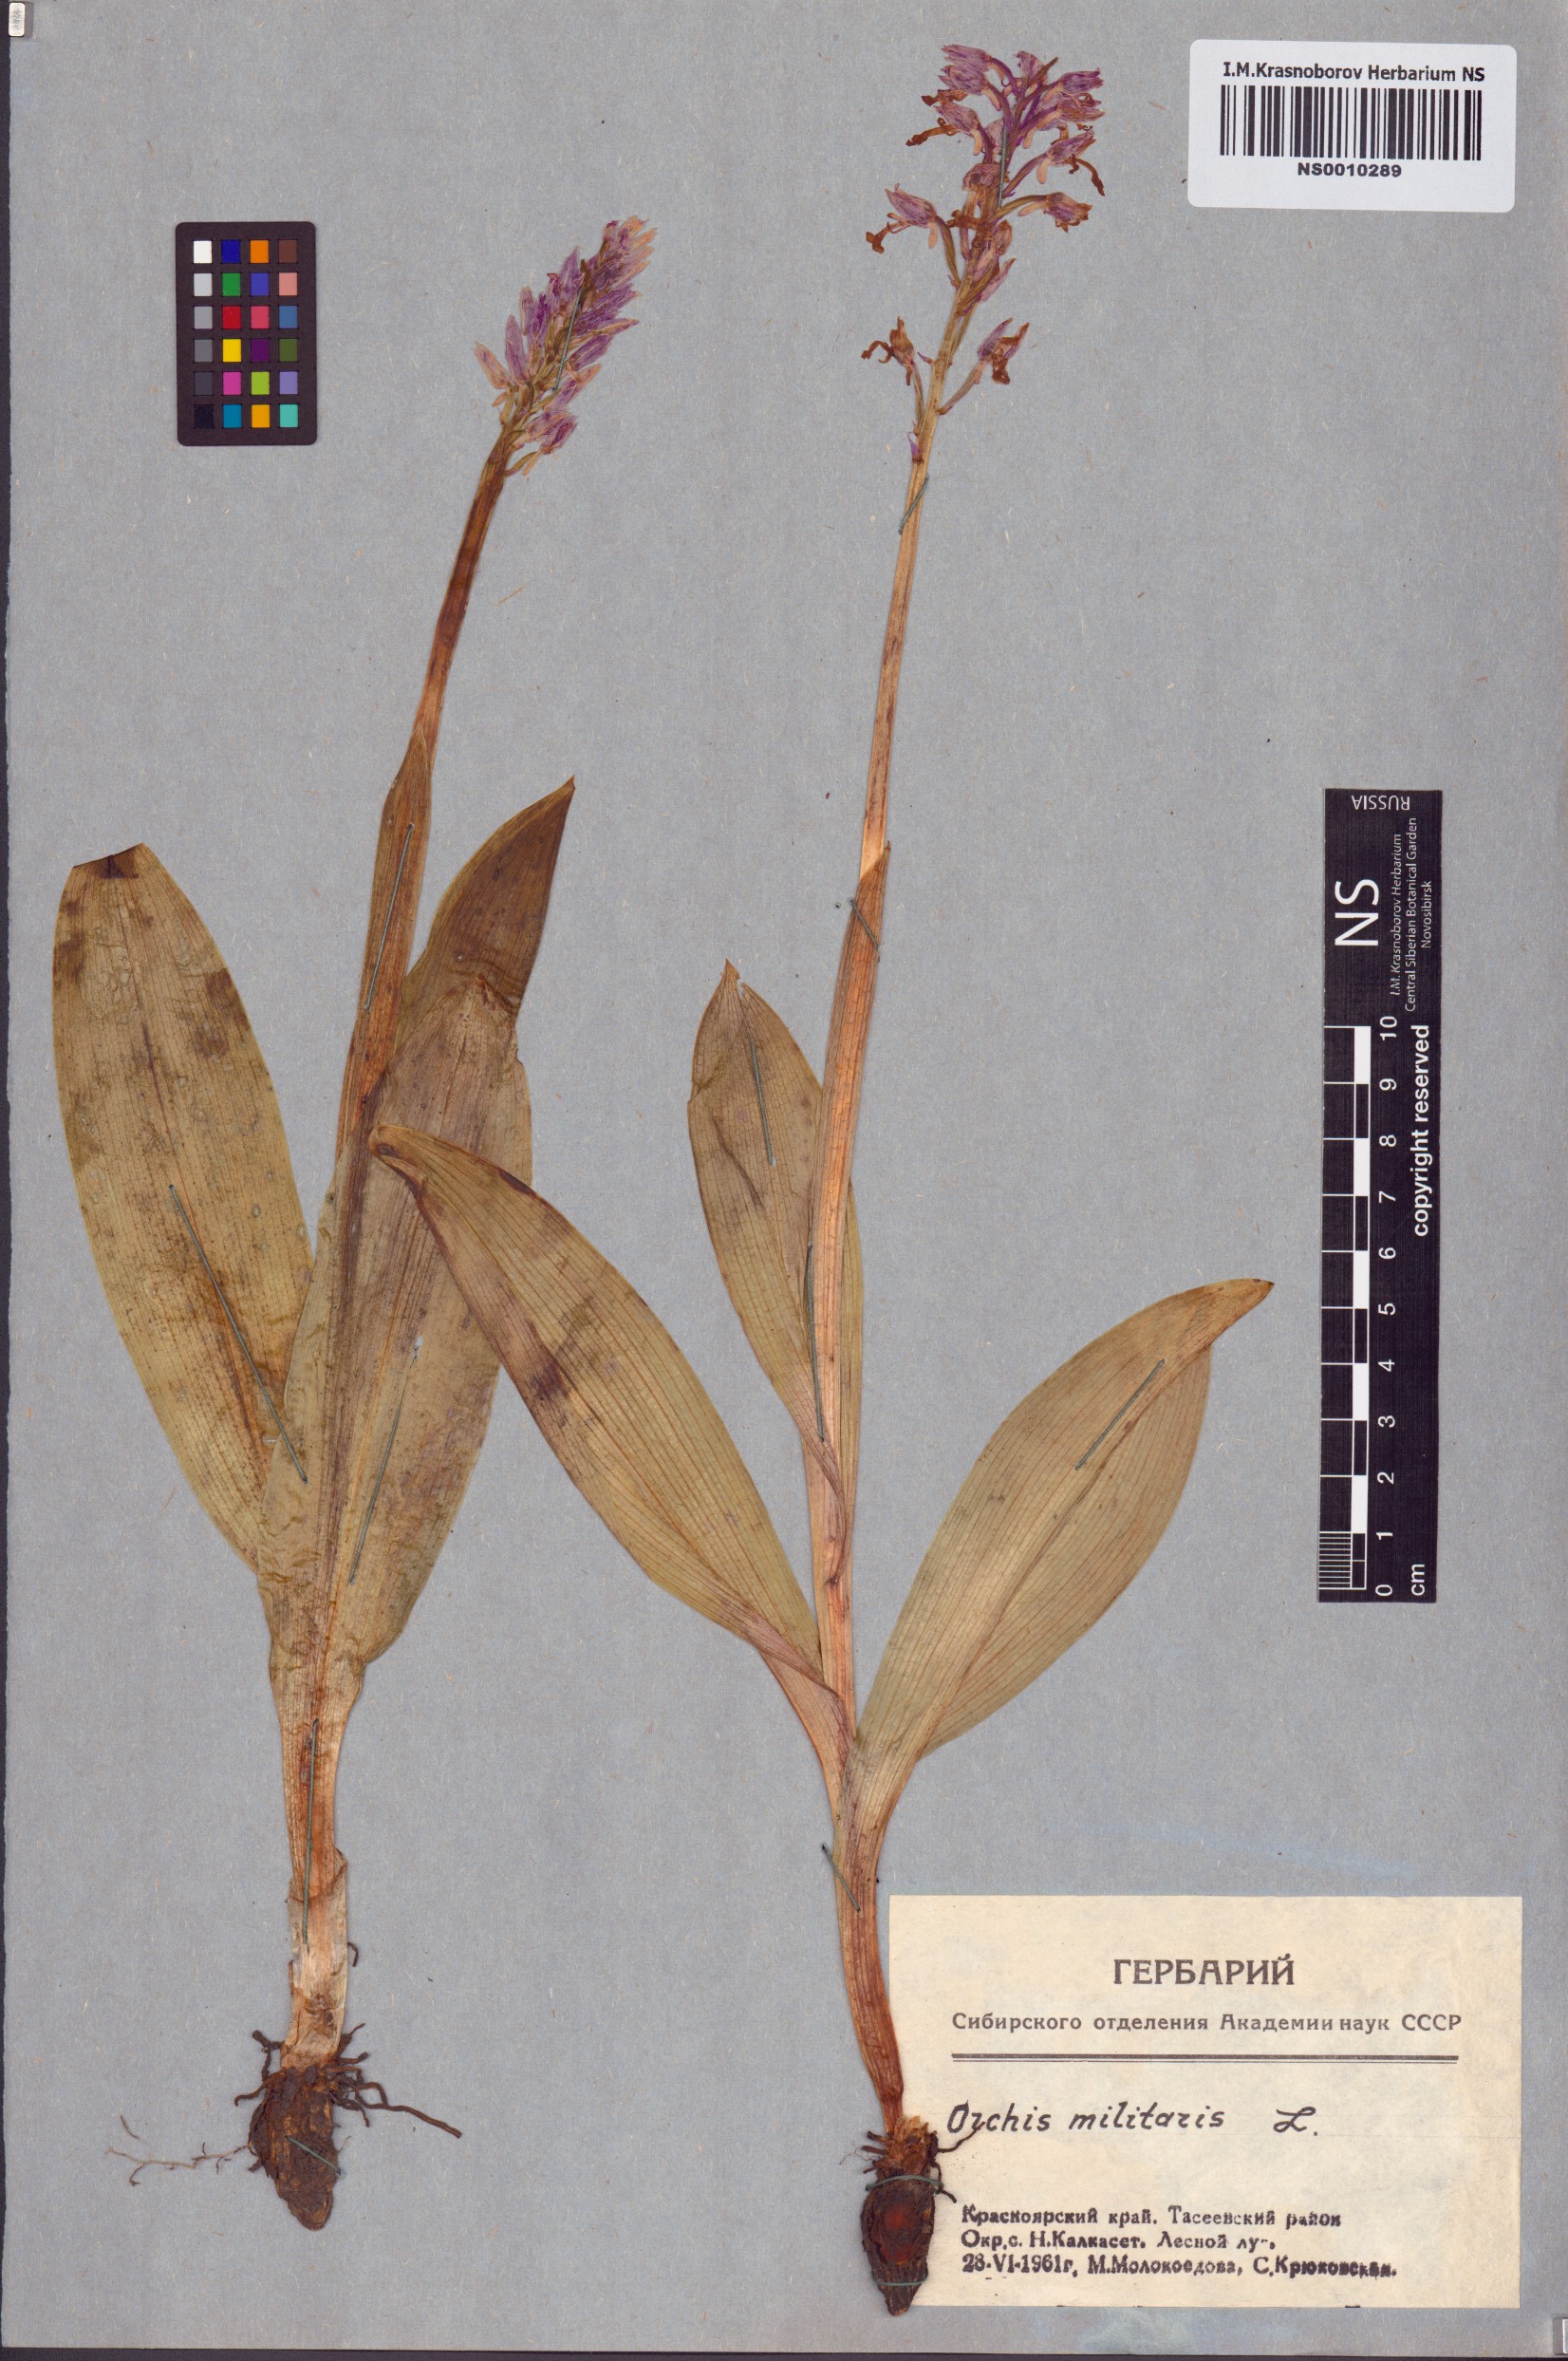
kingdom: Plantae
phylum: Tracheophyta
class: Liliopsida
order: Asparagales
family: Orchidaceae
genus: Orchis
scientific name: Orchis militaris
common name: Military orchid
